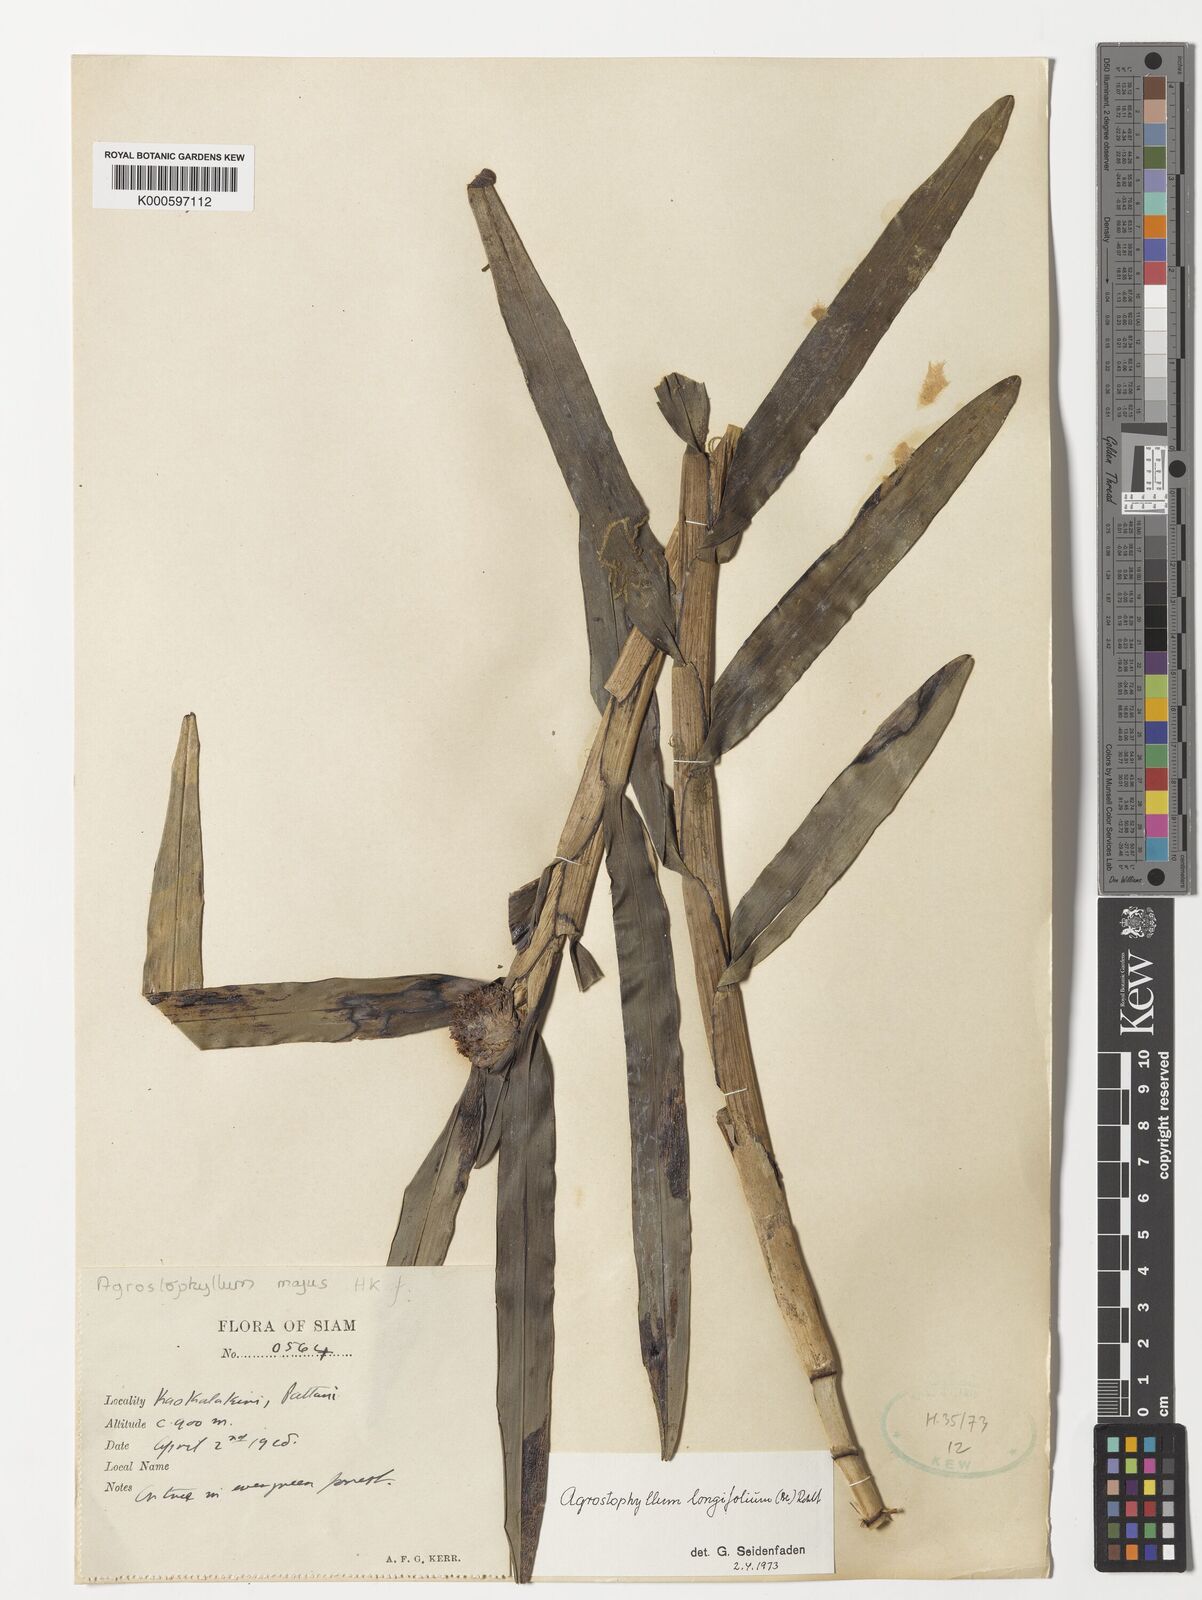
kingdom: Plantae
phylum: Tracheophyta
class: Liliopsida
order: Asparagales
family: Orchidaceae
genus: Agrostophyllum
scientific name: Agrostophyllum longifolium
